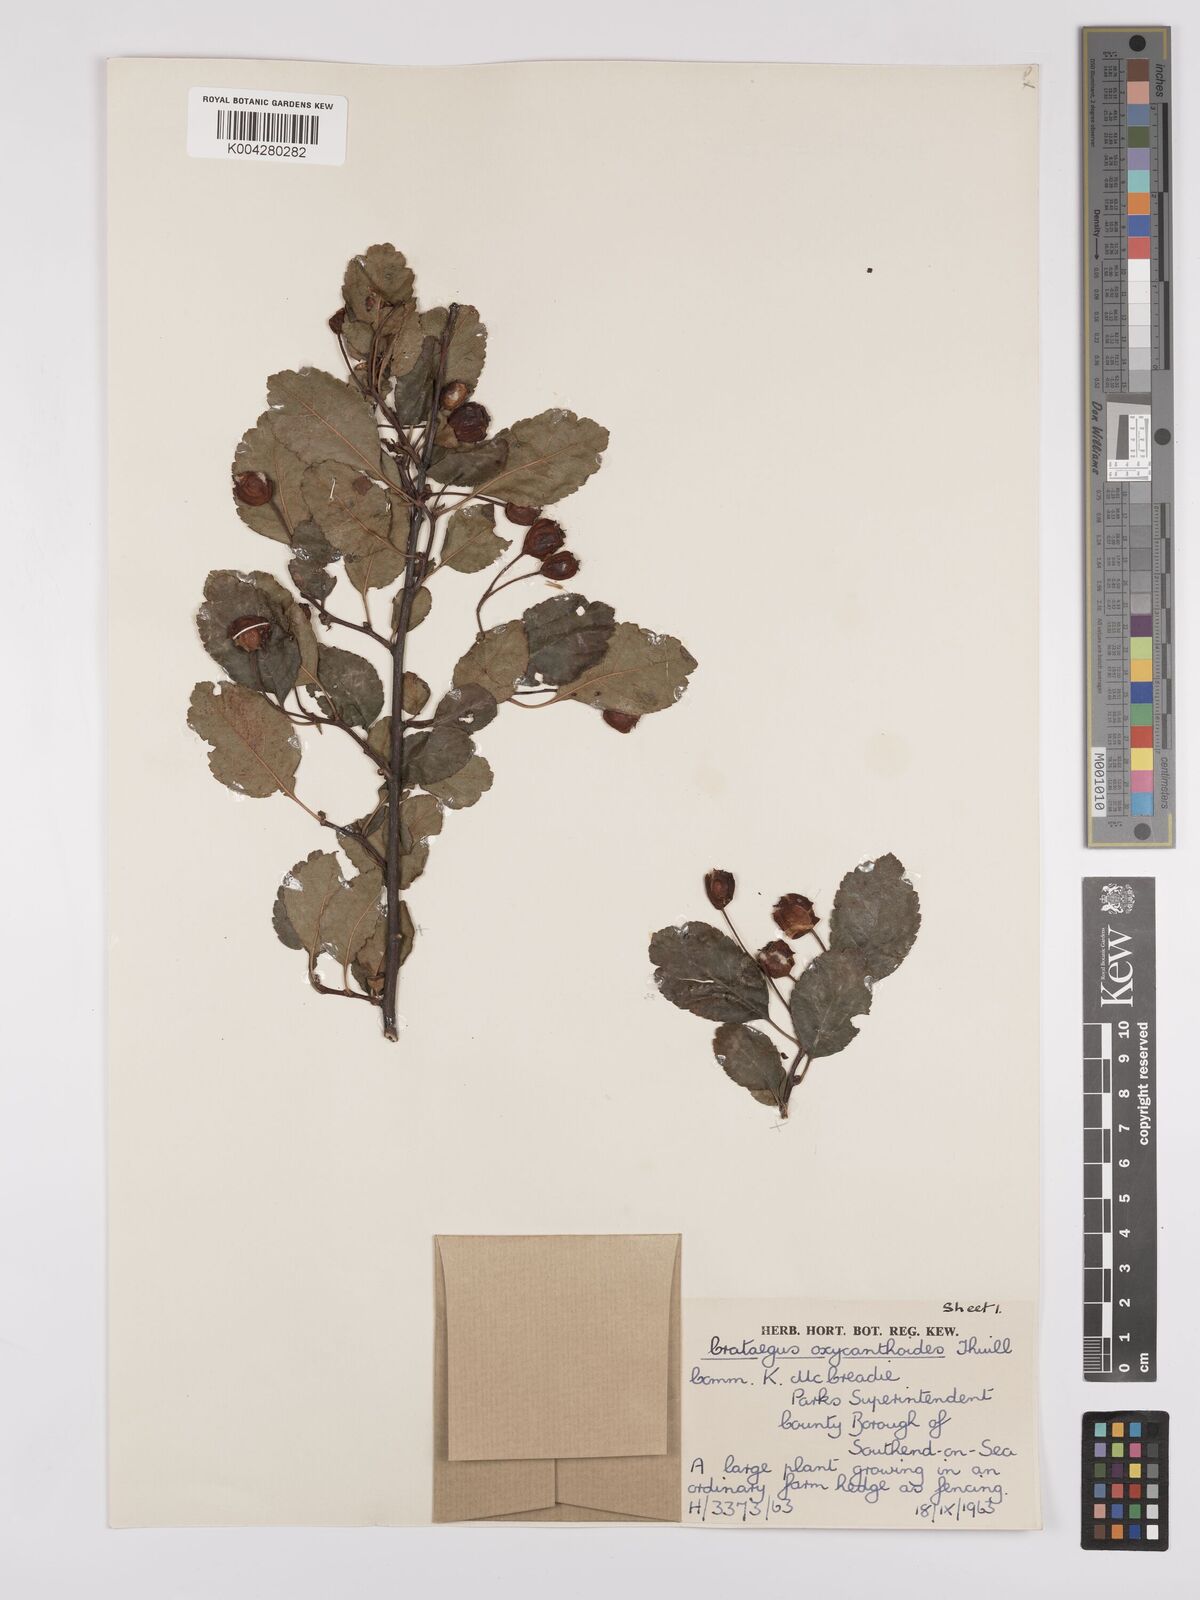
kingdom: Plantae
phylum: Tracheophyta
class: Magnoliopsida
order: Rosales
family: Rosaceae
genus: Crataegus
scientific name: Crataegus laevigata
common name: Midland hawthorn
